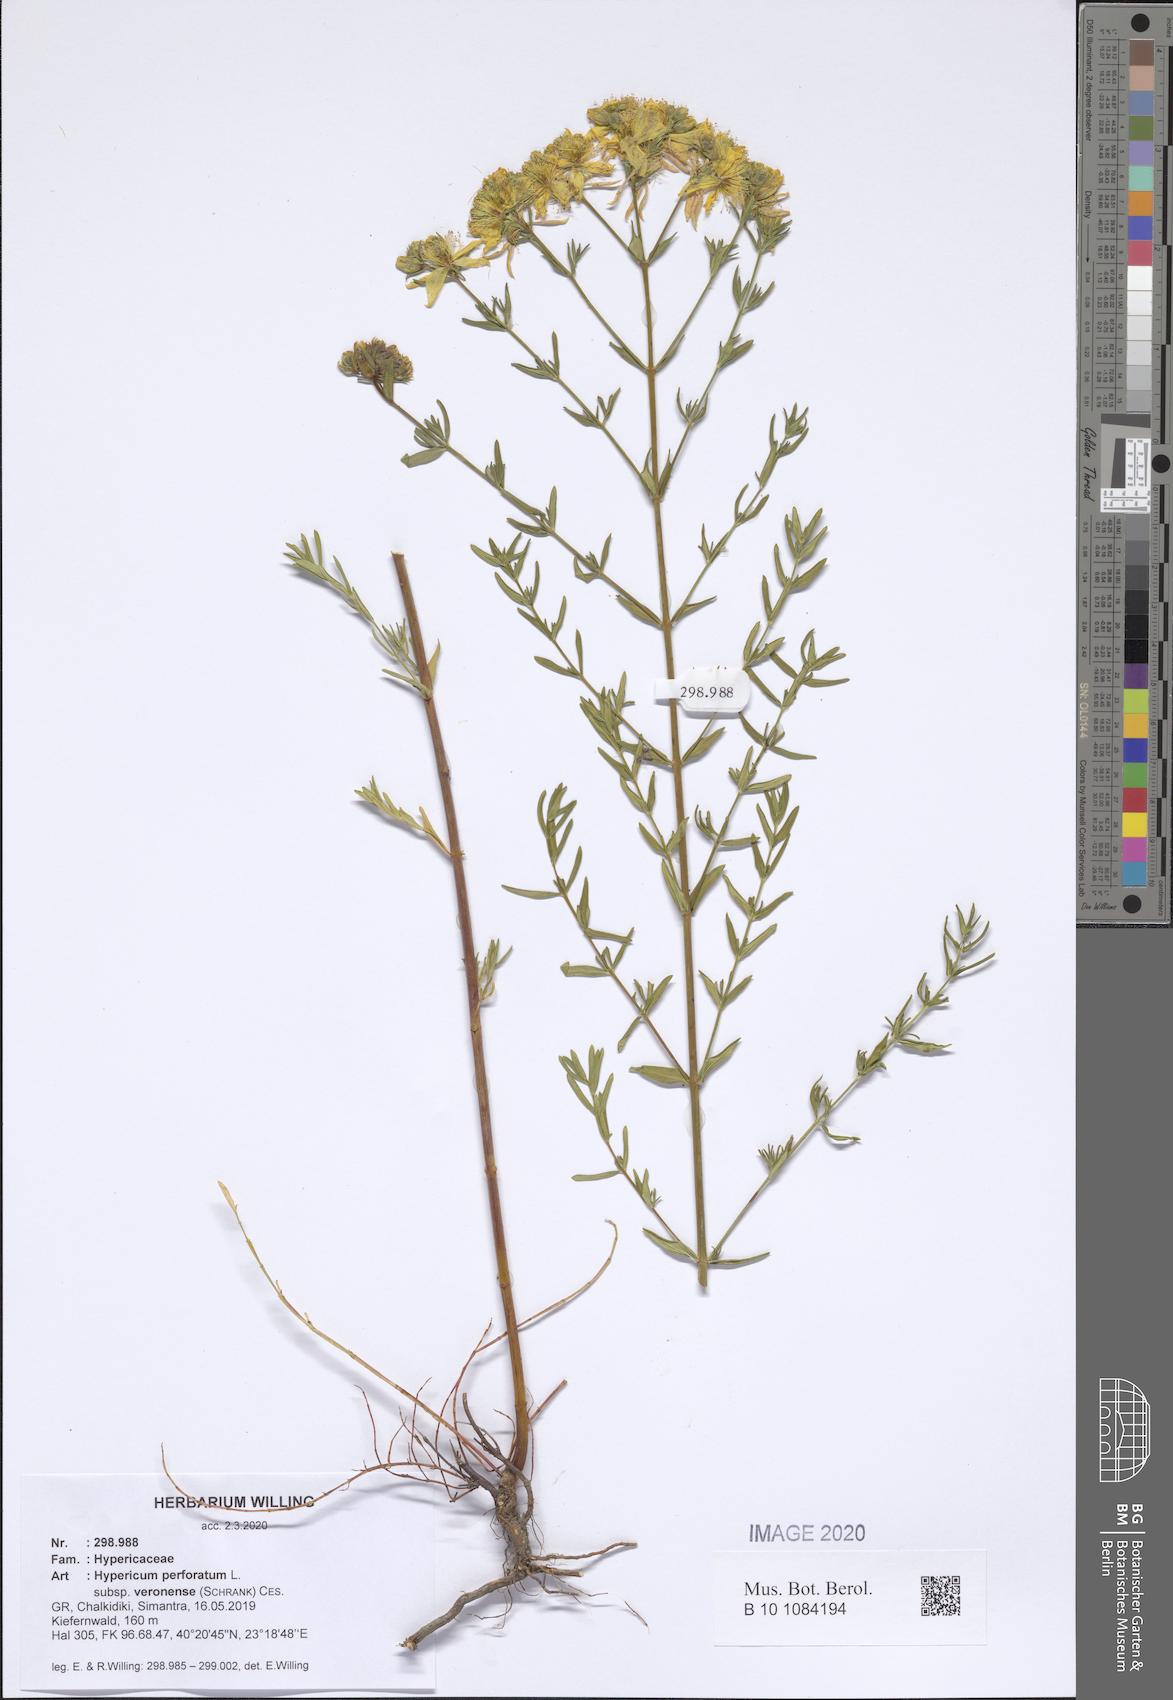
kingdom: Plantae
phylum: Tracheophyta
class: Magnoliopsida
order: Malpighiales
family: Hypericaceae
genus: Hypericum
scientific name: Hypericum veronense
